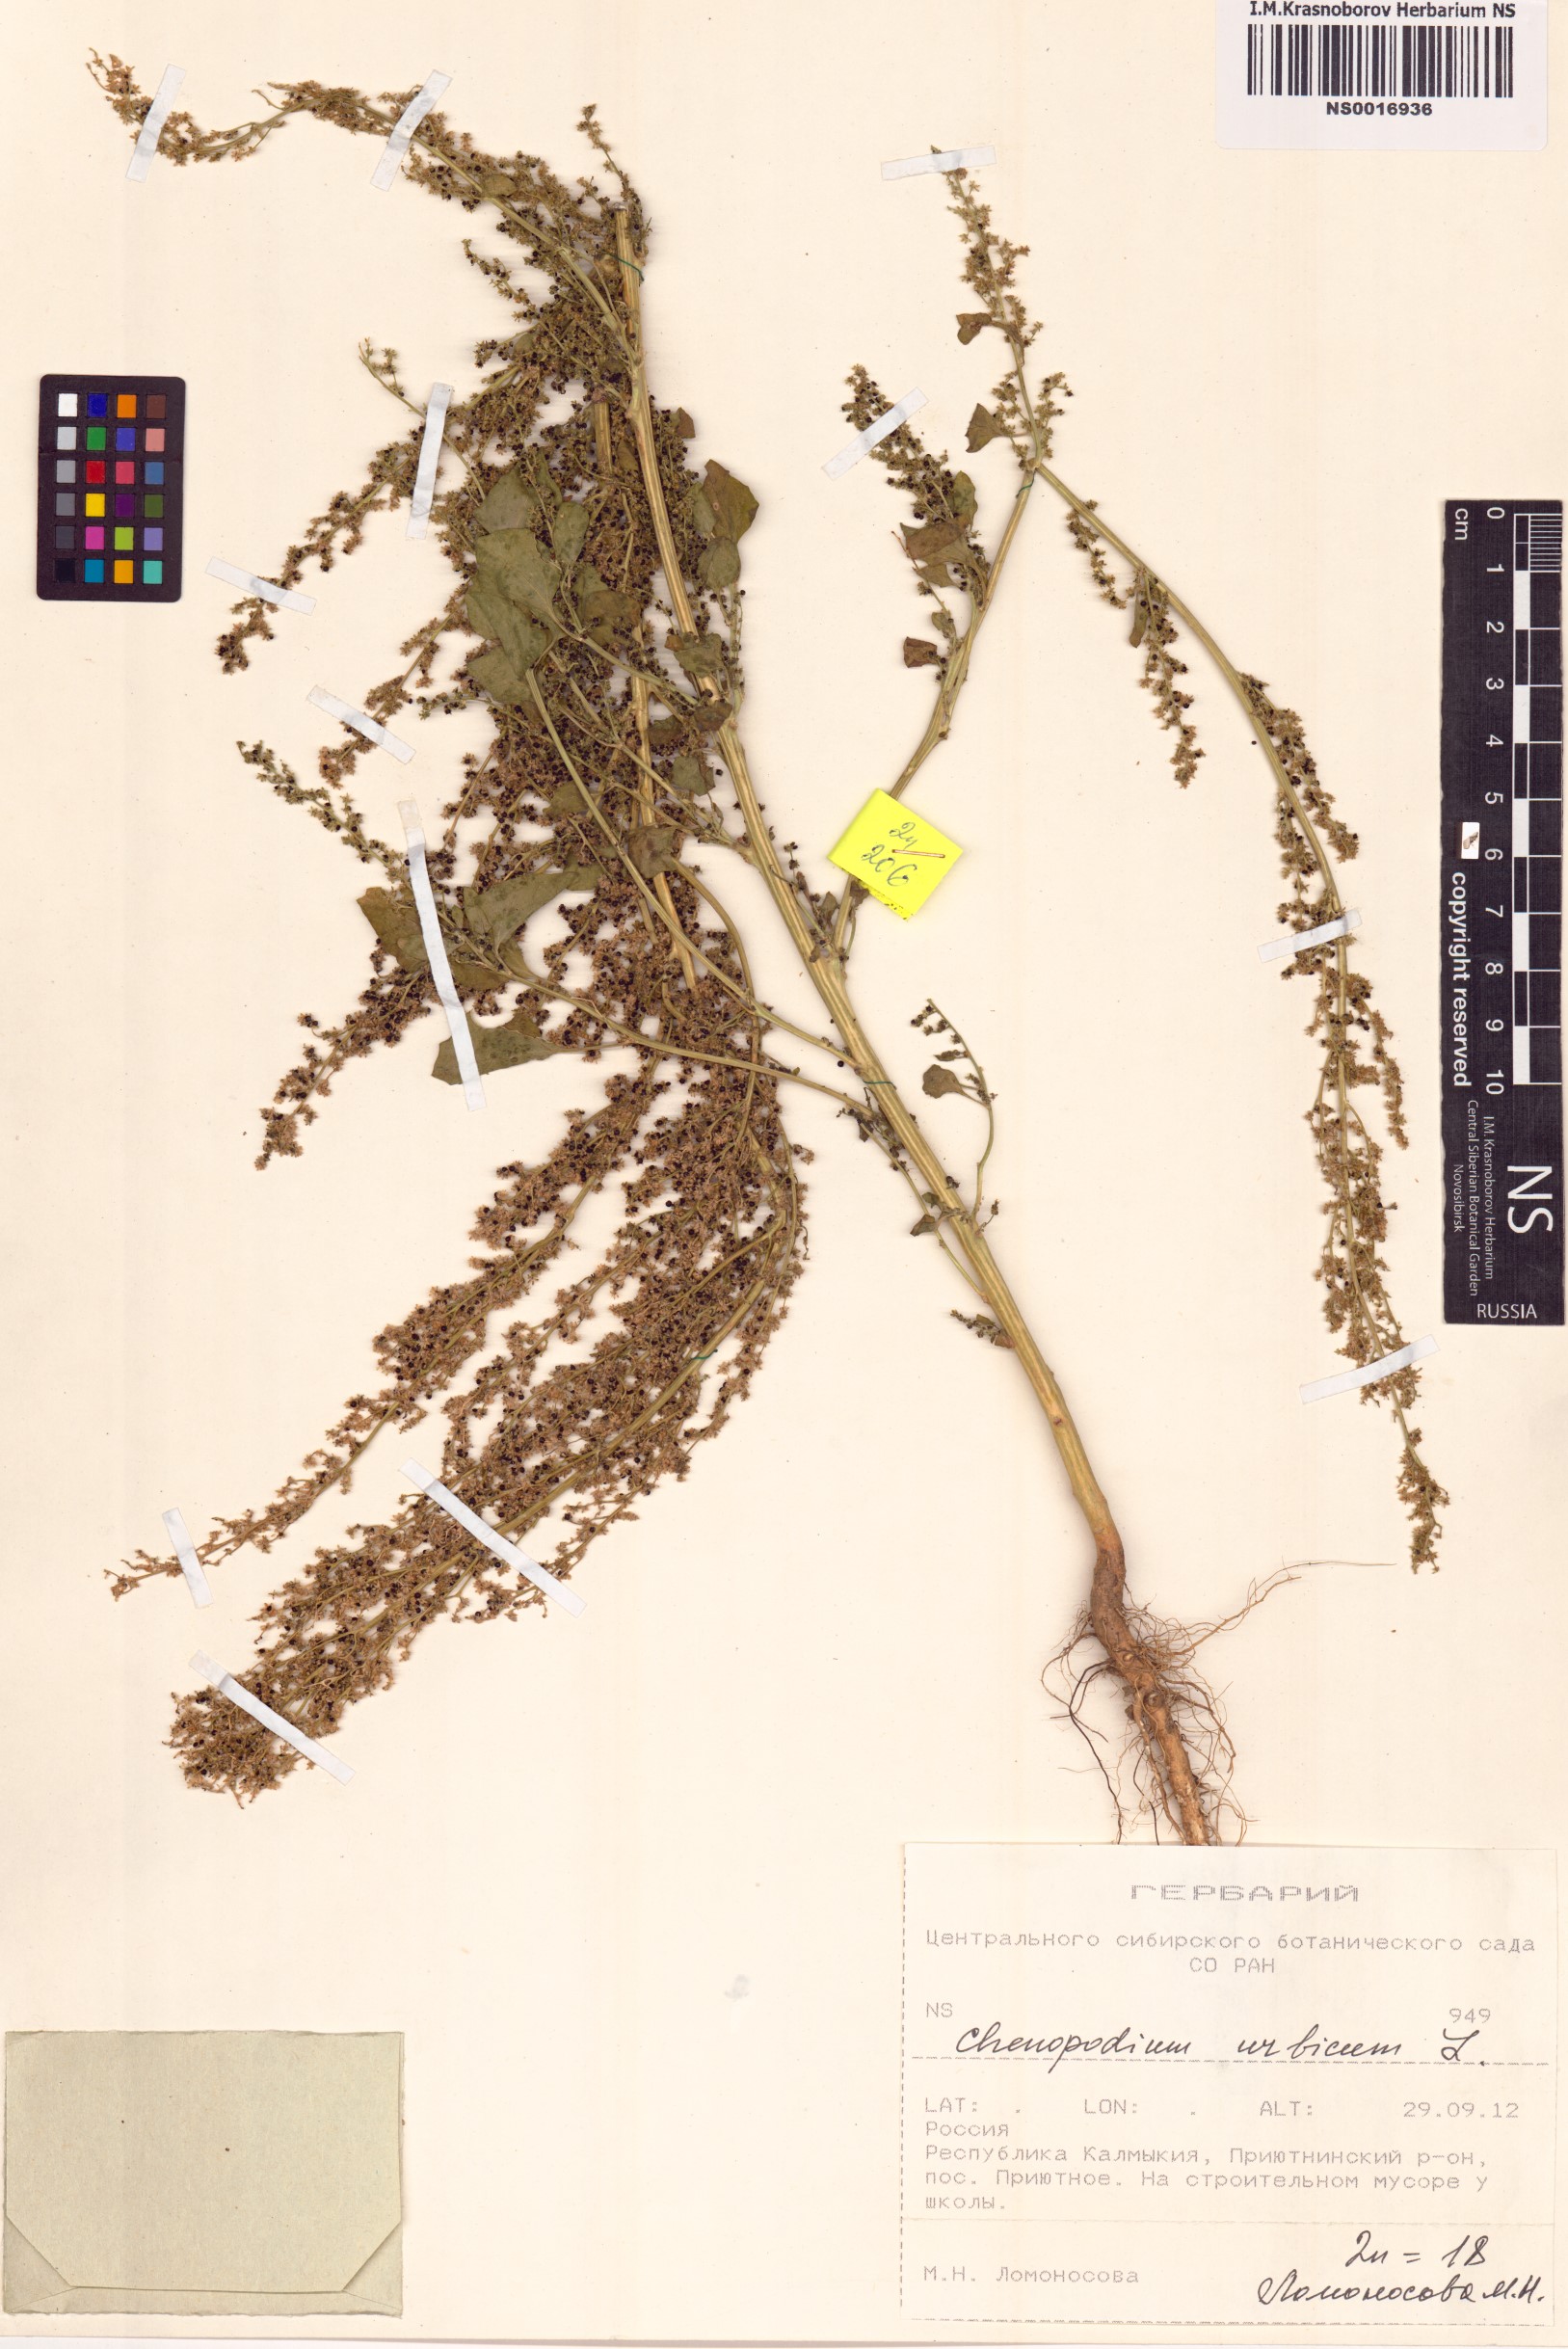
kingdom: Plantae
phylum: Tracheophyta
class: Magnoliopsida
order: Caryophyllales
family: Amaranthaceae
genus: Oxybasis
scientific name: Oxybasis urbica
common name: City goosefoot
